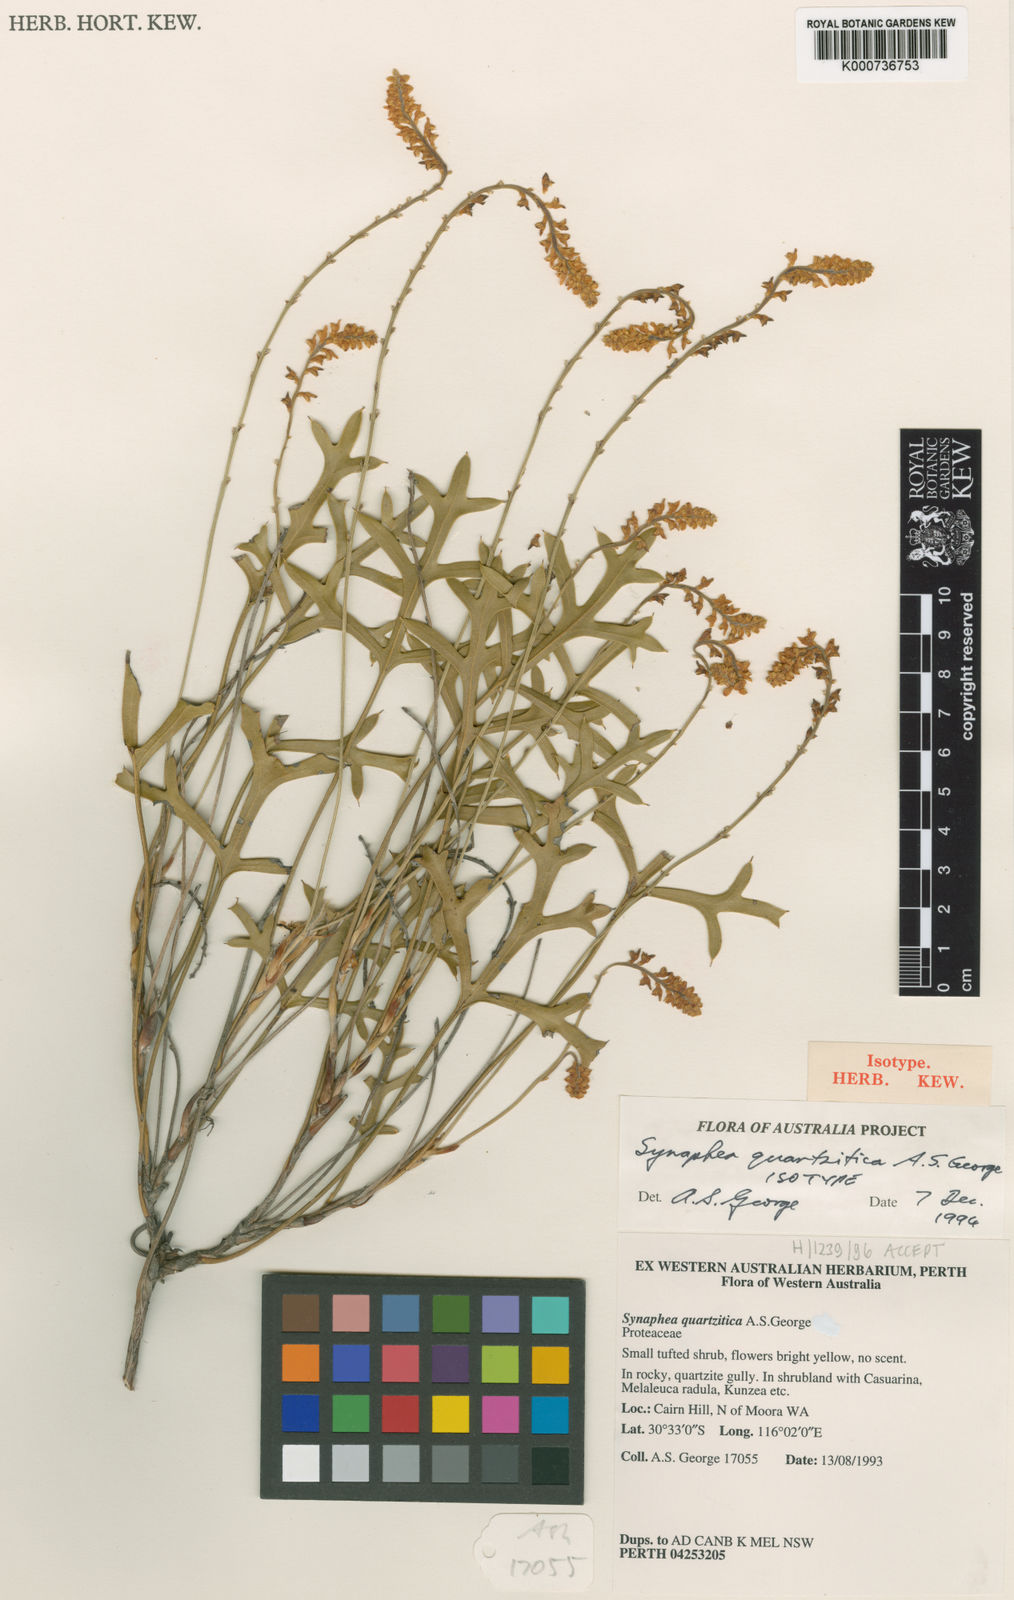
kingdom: Plantae
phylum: Tracheophyta
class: Magnoliopsida
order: Proteales
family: Proteaceae
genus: Synaphea
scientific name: Synaphea quartzitica
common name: Quartz-loving synaphea
